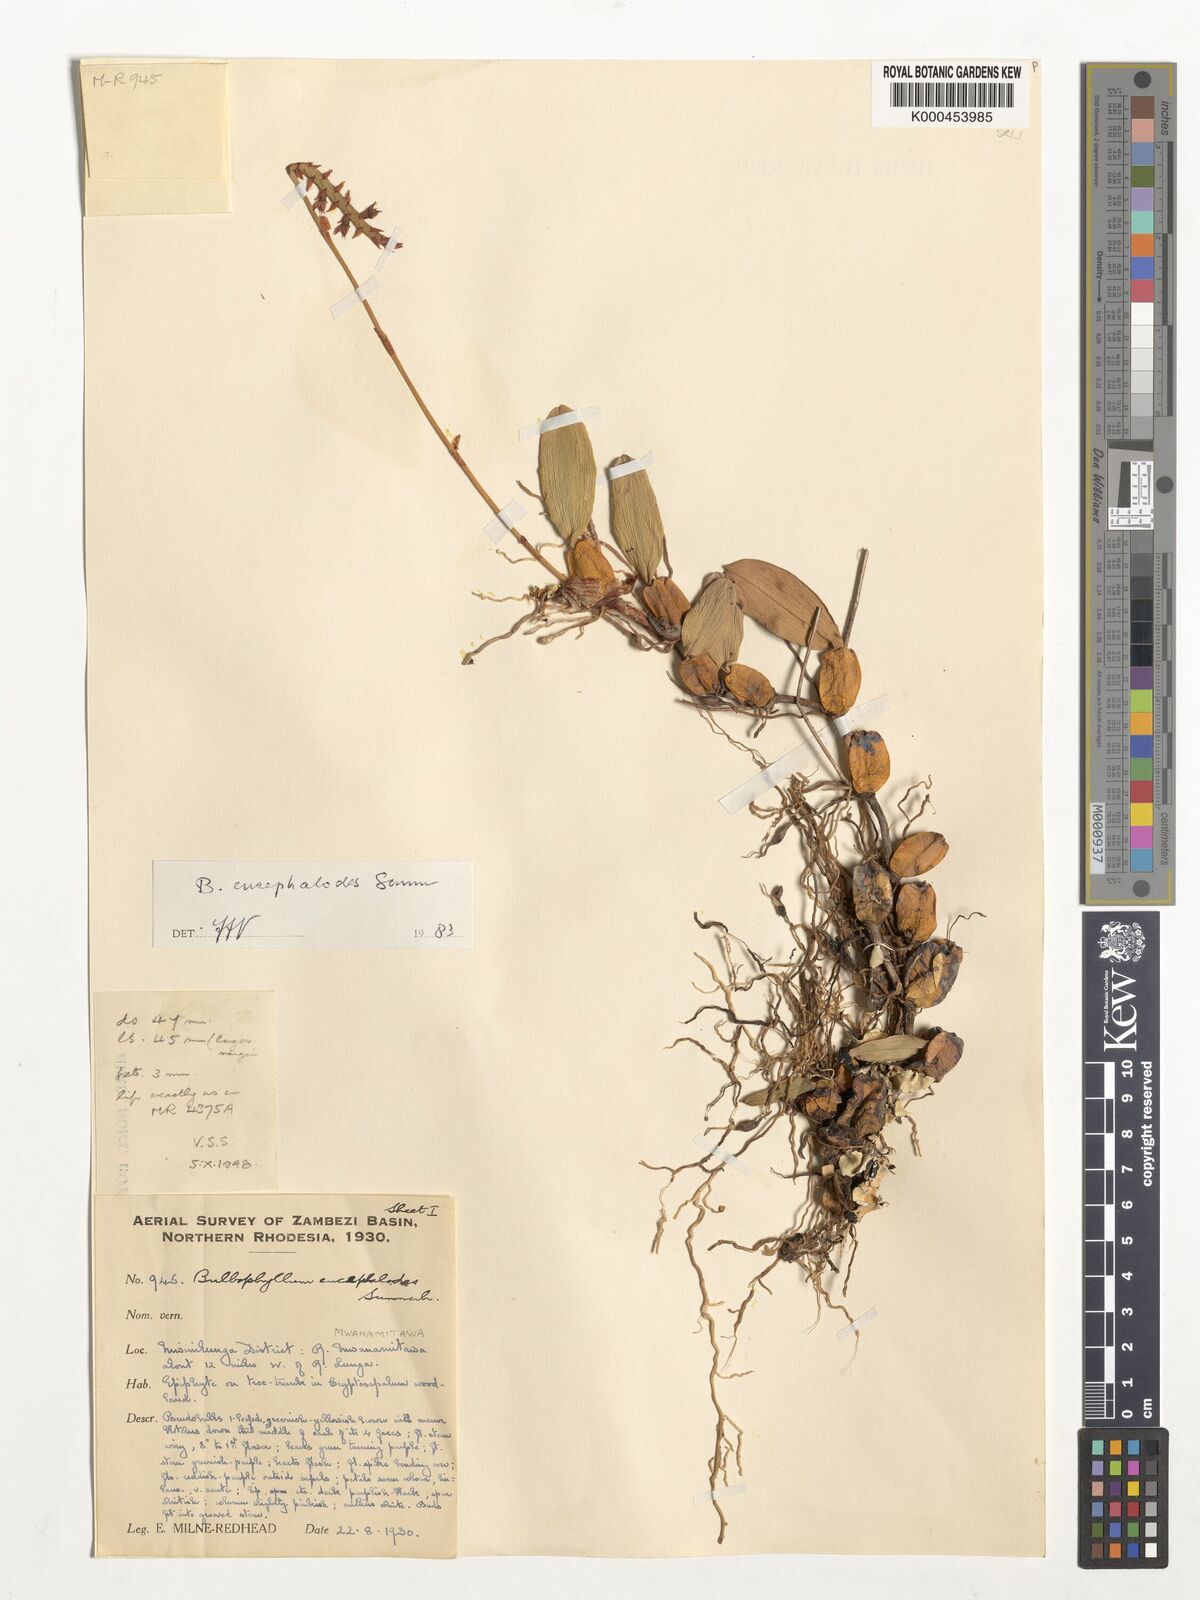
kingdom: Plantae
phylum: Tracheophyta
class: Liliopsida
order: Asparagales
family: Orchidaceae
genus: Bulbophyllum
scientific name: Bulbophyllum encephalodes
